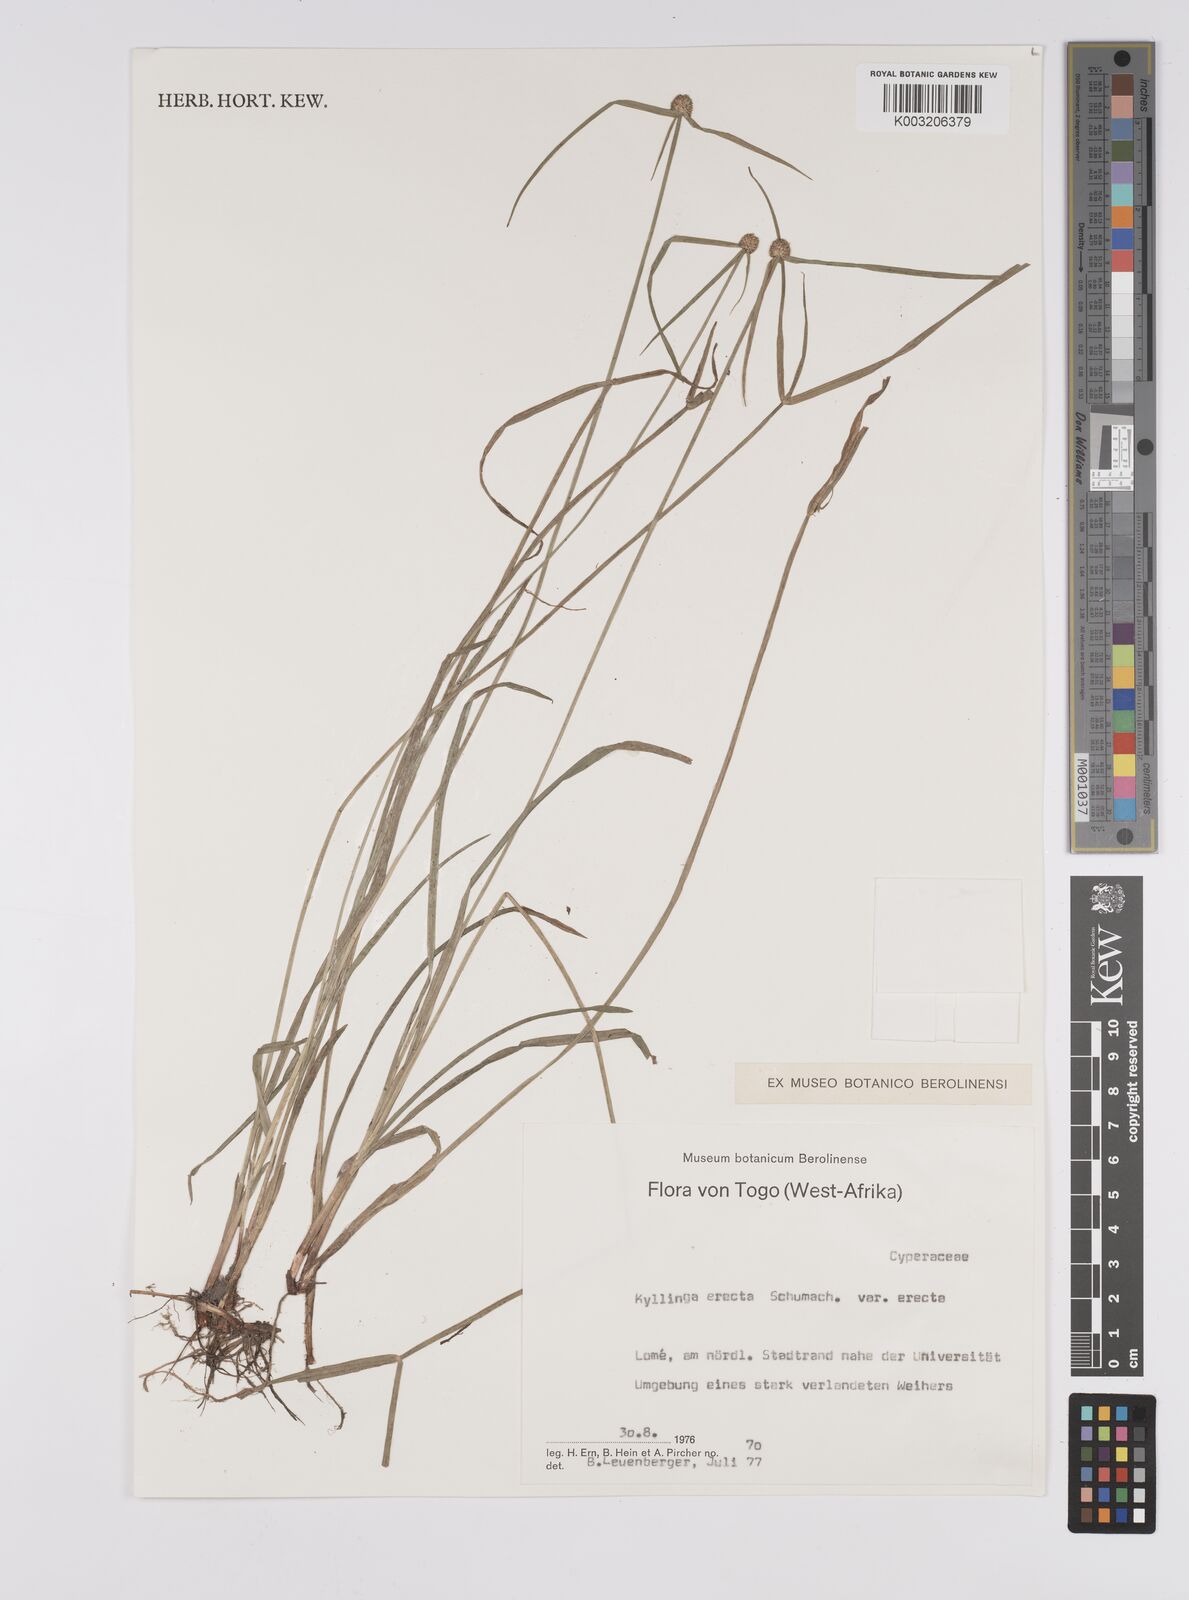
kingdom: Plantae
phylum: Tracheophyta
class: Liliopsida
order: Poales
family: Cyperaceae
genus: Cyperus
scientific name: Cyperus erectus
